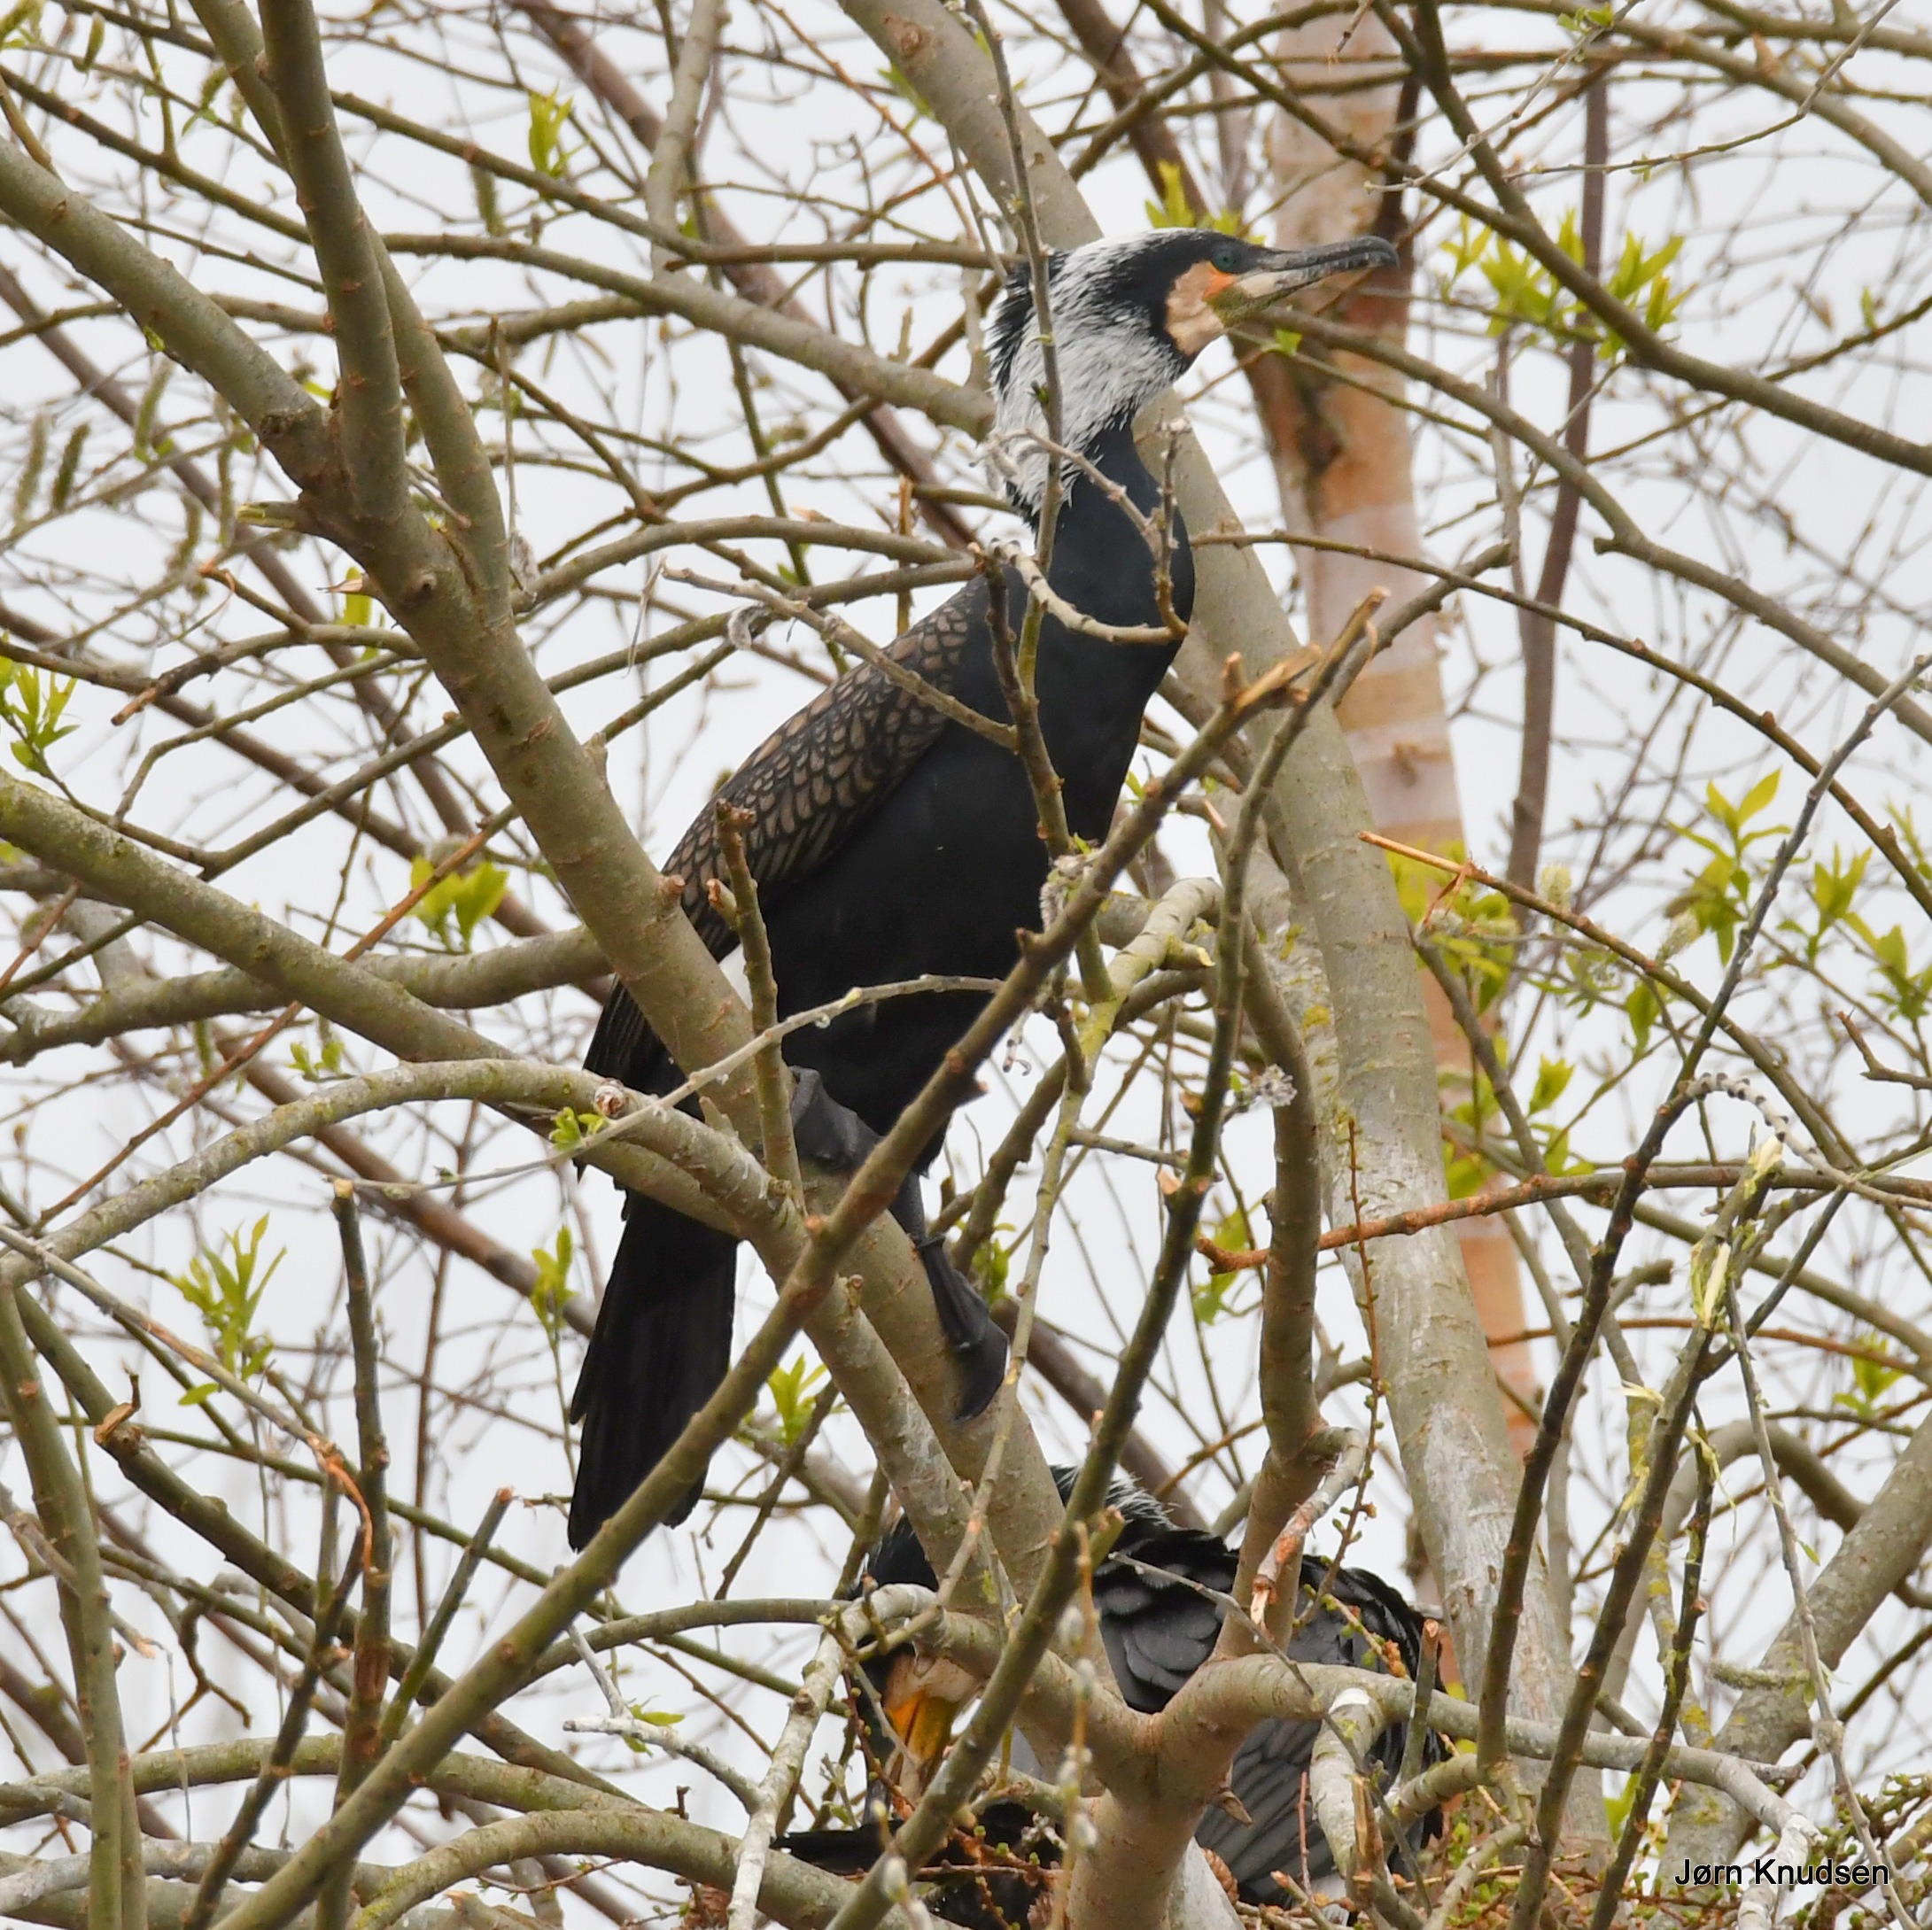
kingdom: Animalia
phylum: Chordata
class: Aves
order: Suliformes
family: Phalacrocoracidae
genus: Phalacrocorax
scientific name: Phalacrocorax carbo
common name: Skarv
